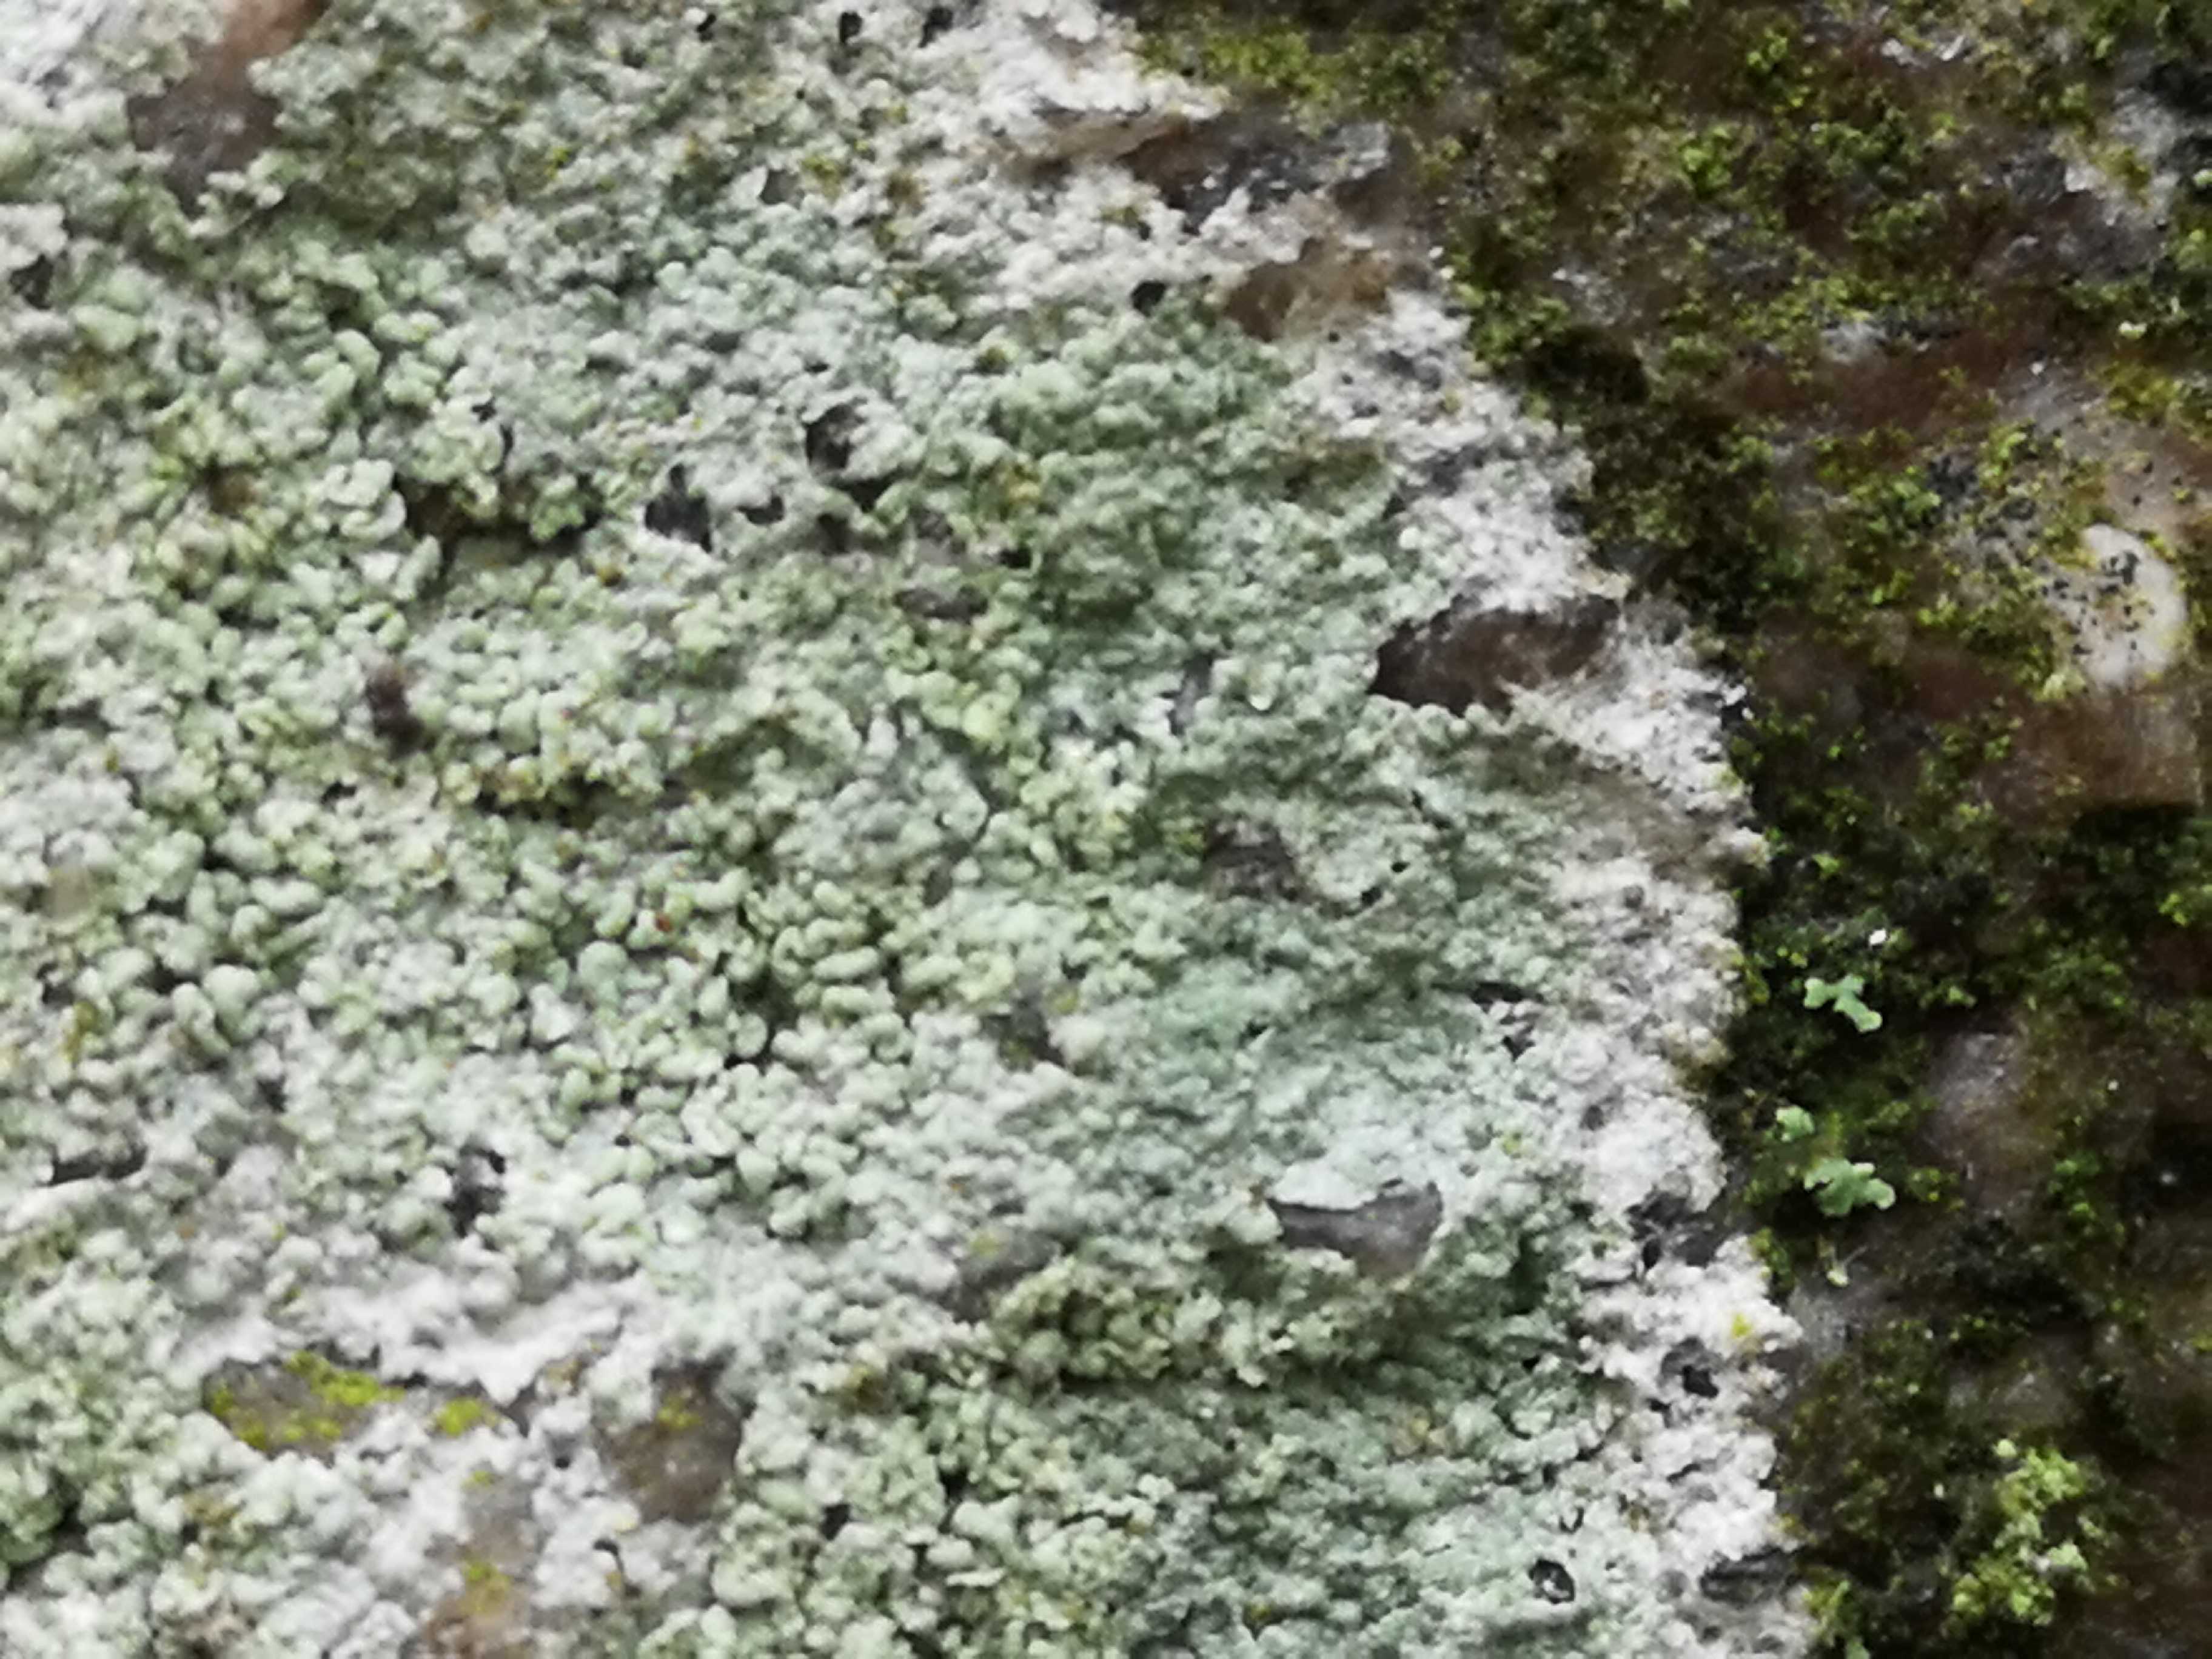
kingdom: Fungi
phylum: Ascomycota
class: Lecanoromycetes
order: Ostropales
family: Phlyctidaceae
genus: Phlyctis
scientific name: Phlyctis argena
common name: almindelig sølvlav
